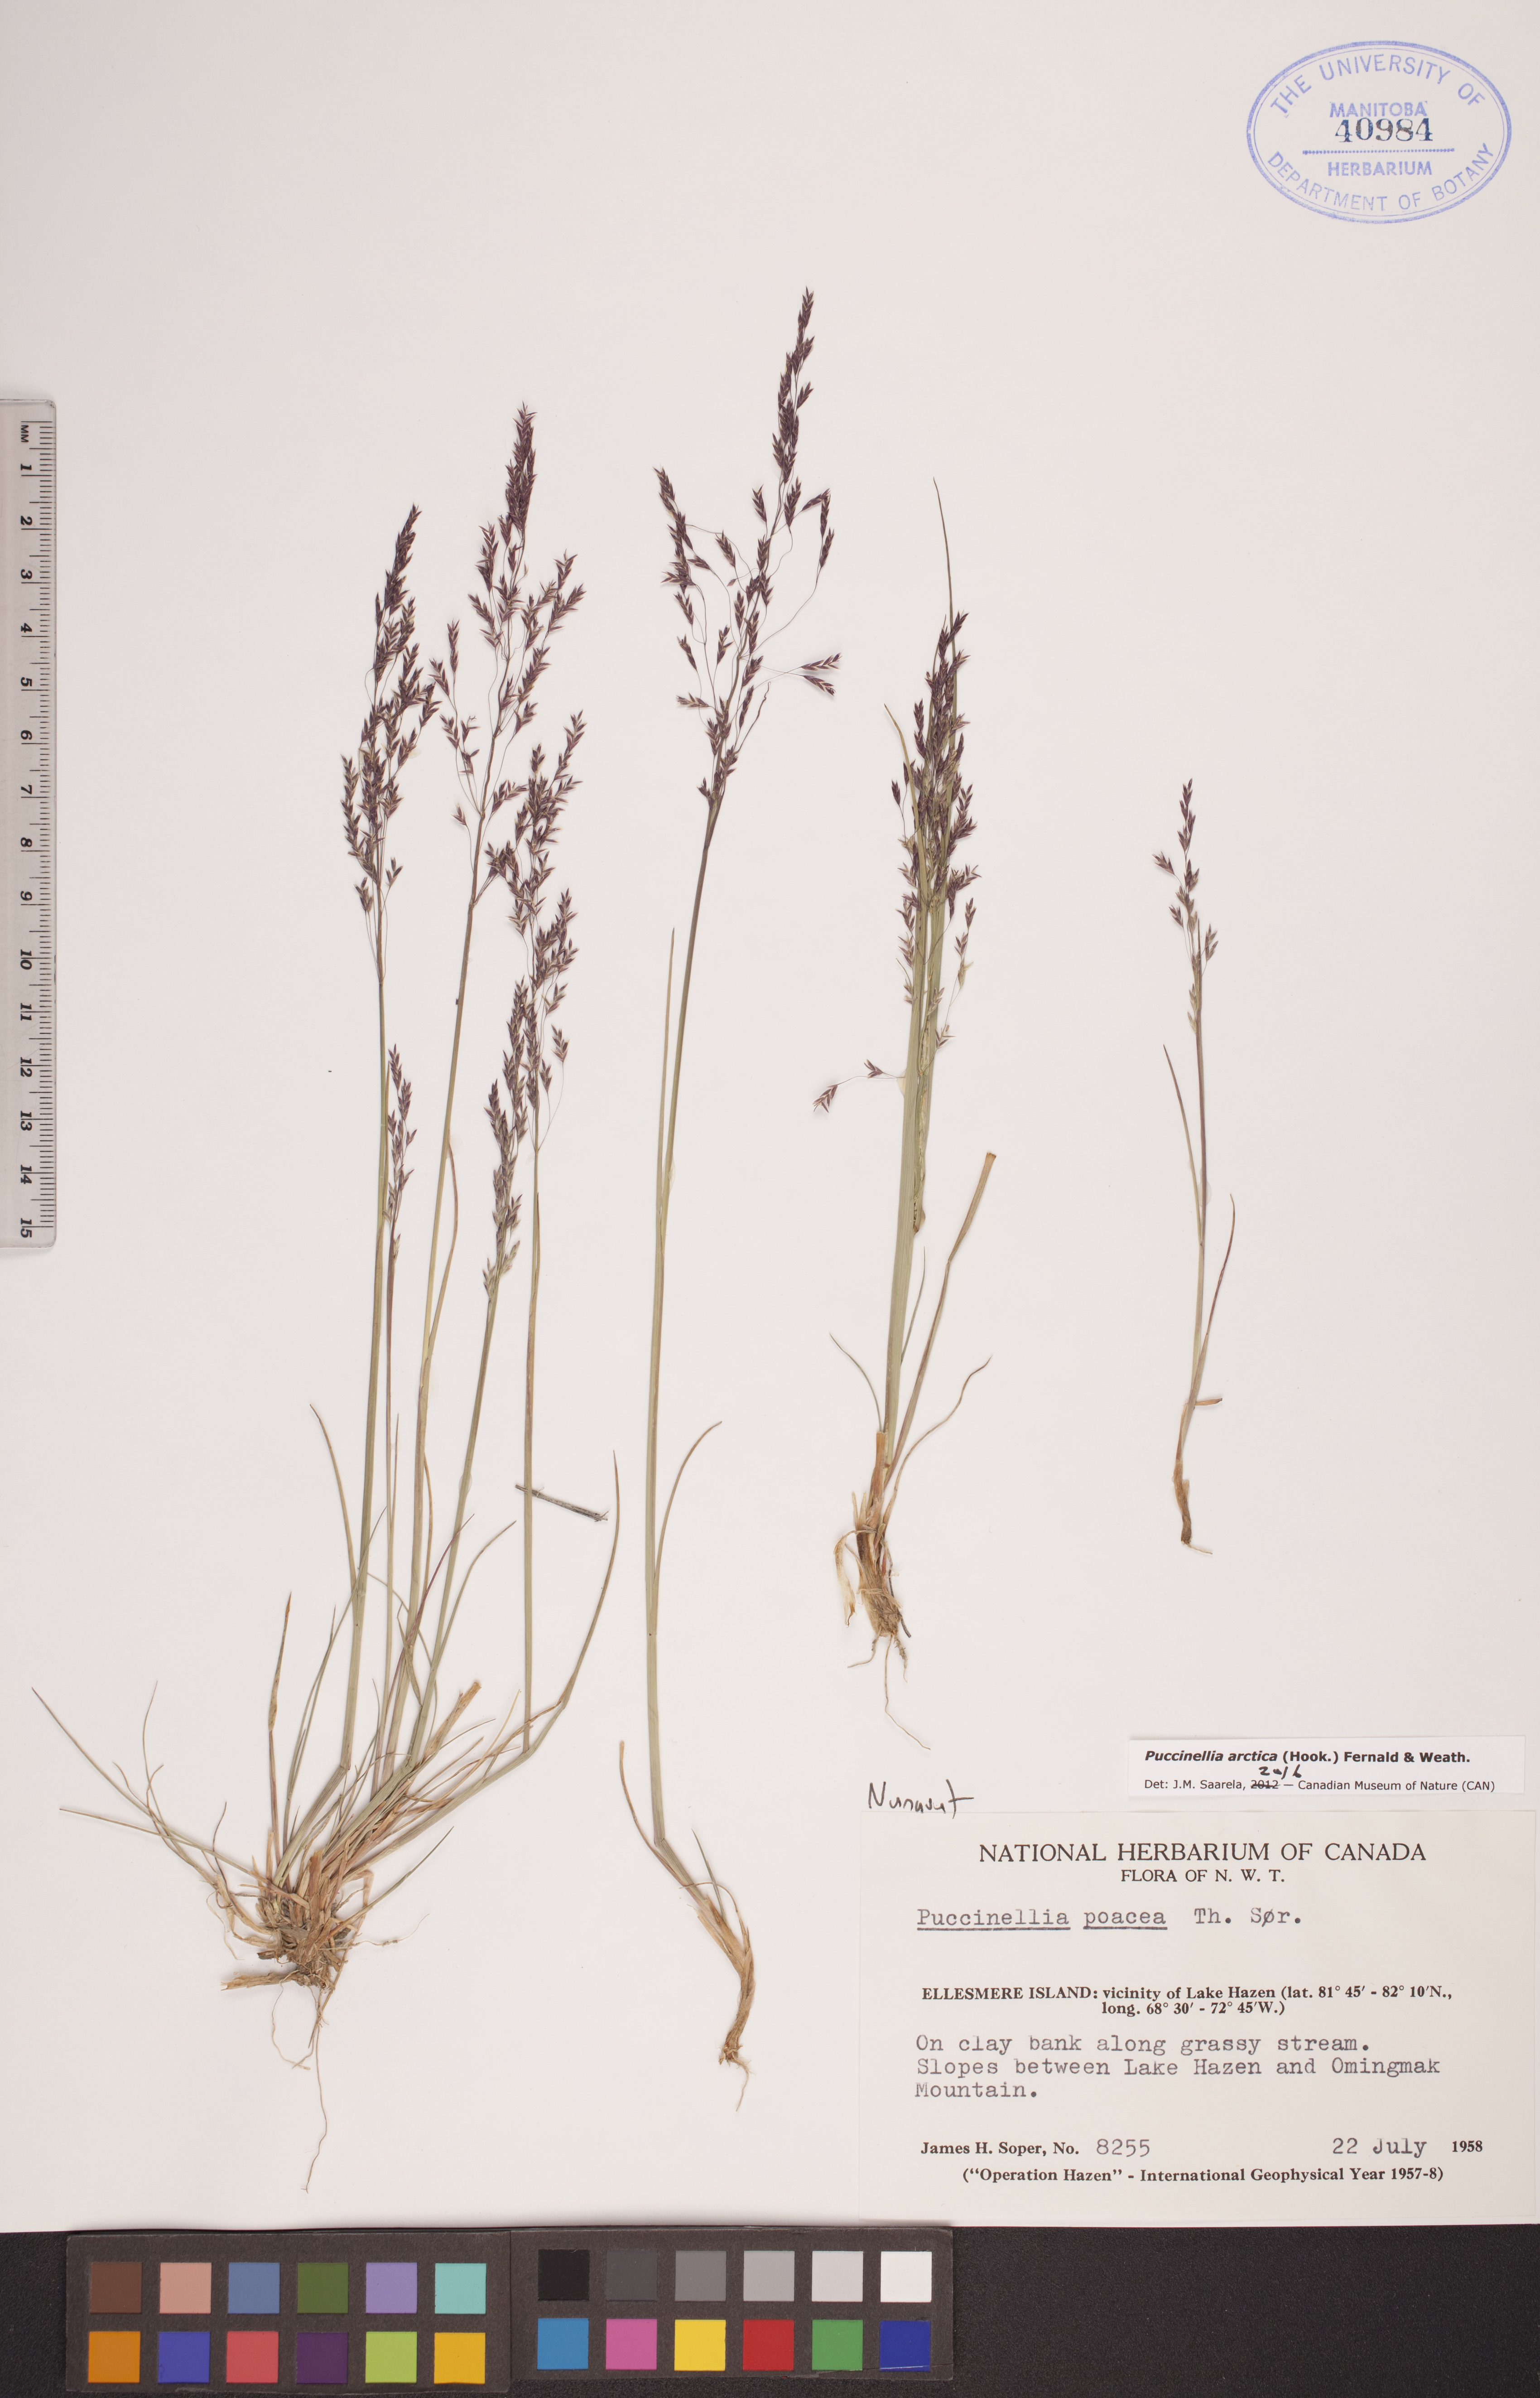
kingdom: Plantae
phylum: Tracheophyta
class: Liliopsida
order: Poales
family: Poaceae
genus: Puccinellia
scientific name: Puccinellia arctica
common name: Arctic alkali grass
